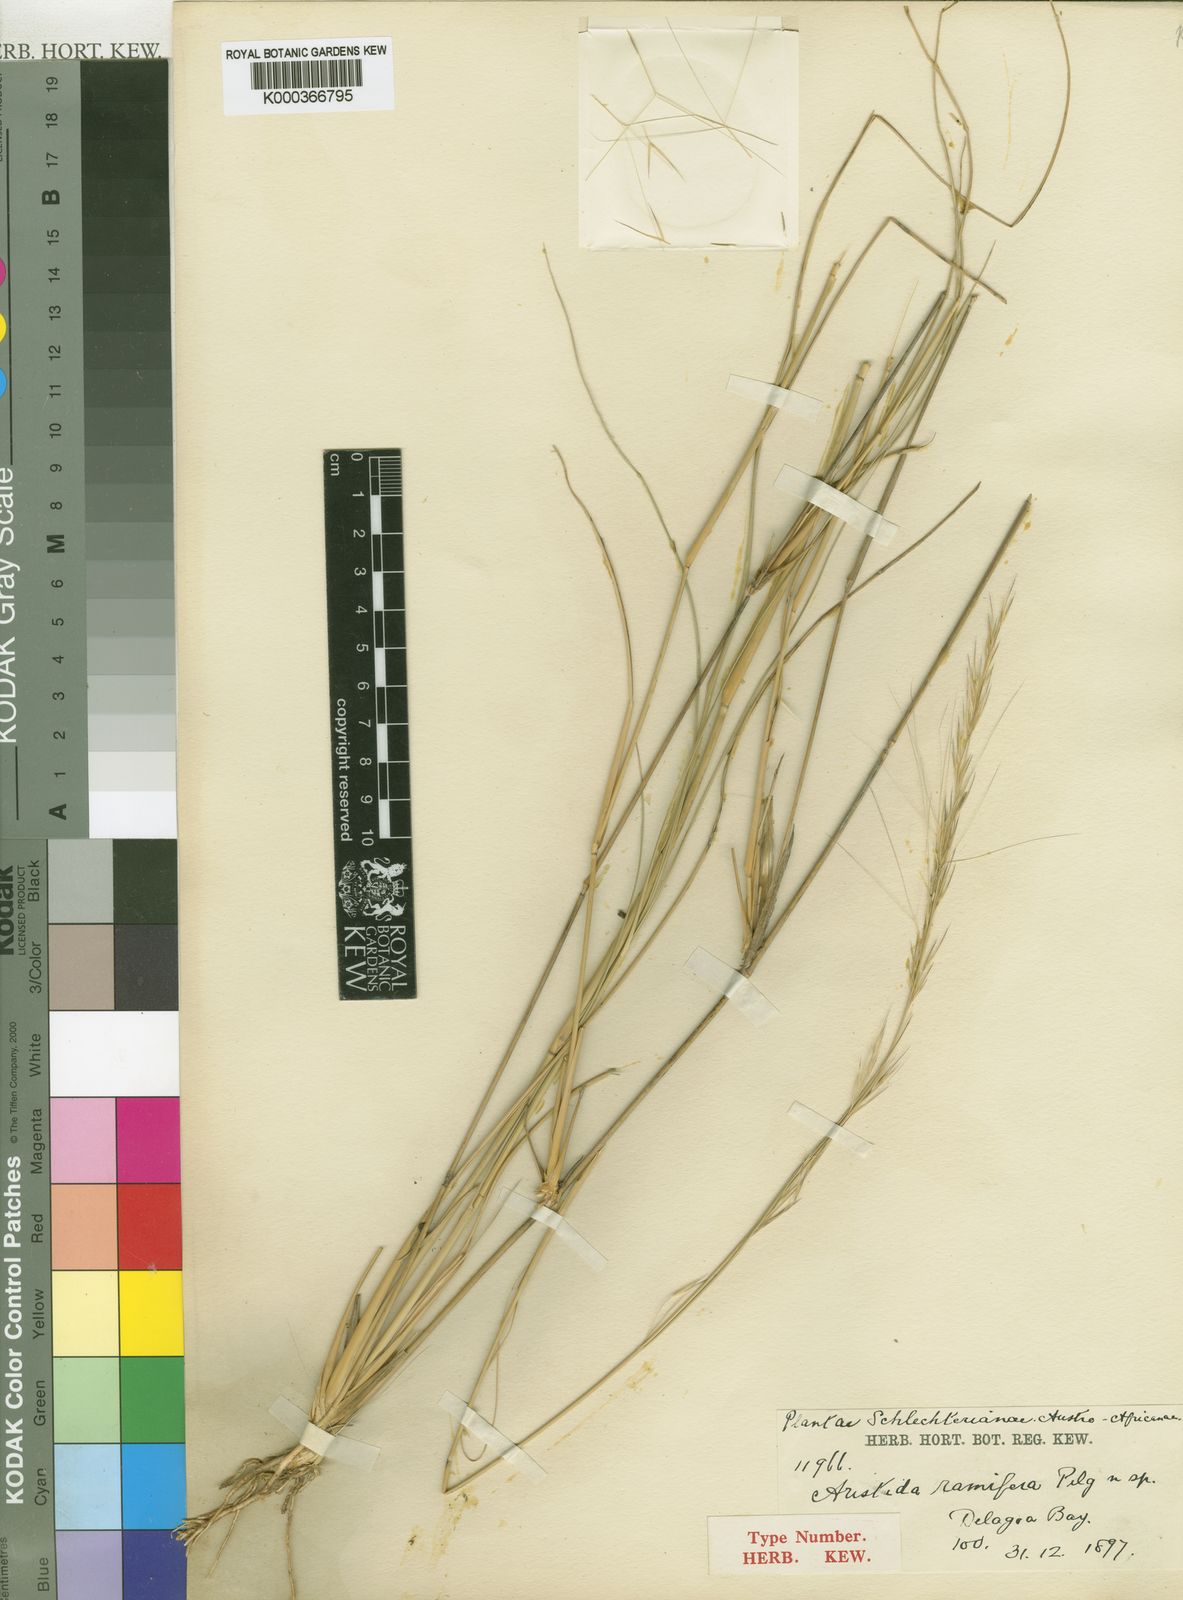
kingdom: Plantae
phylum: Tracheophyta
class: Liliopsida
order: Poales
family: Poaceae
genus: Aristida
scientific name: Aristida
